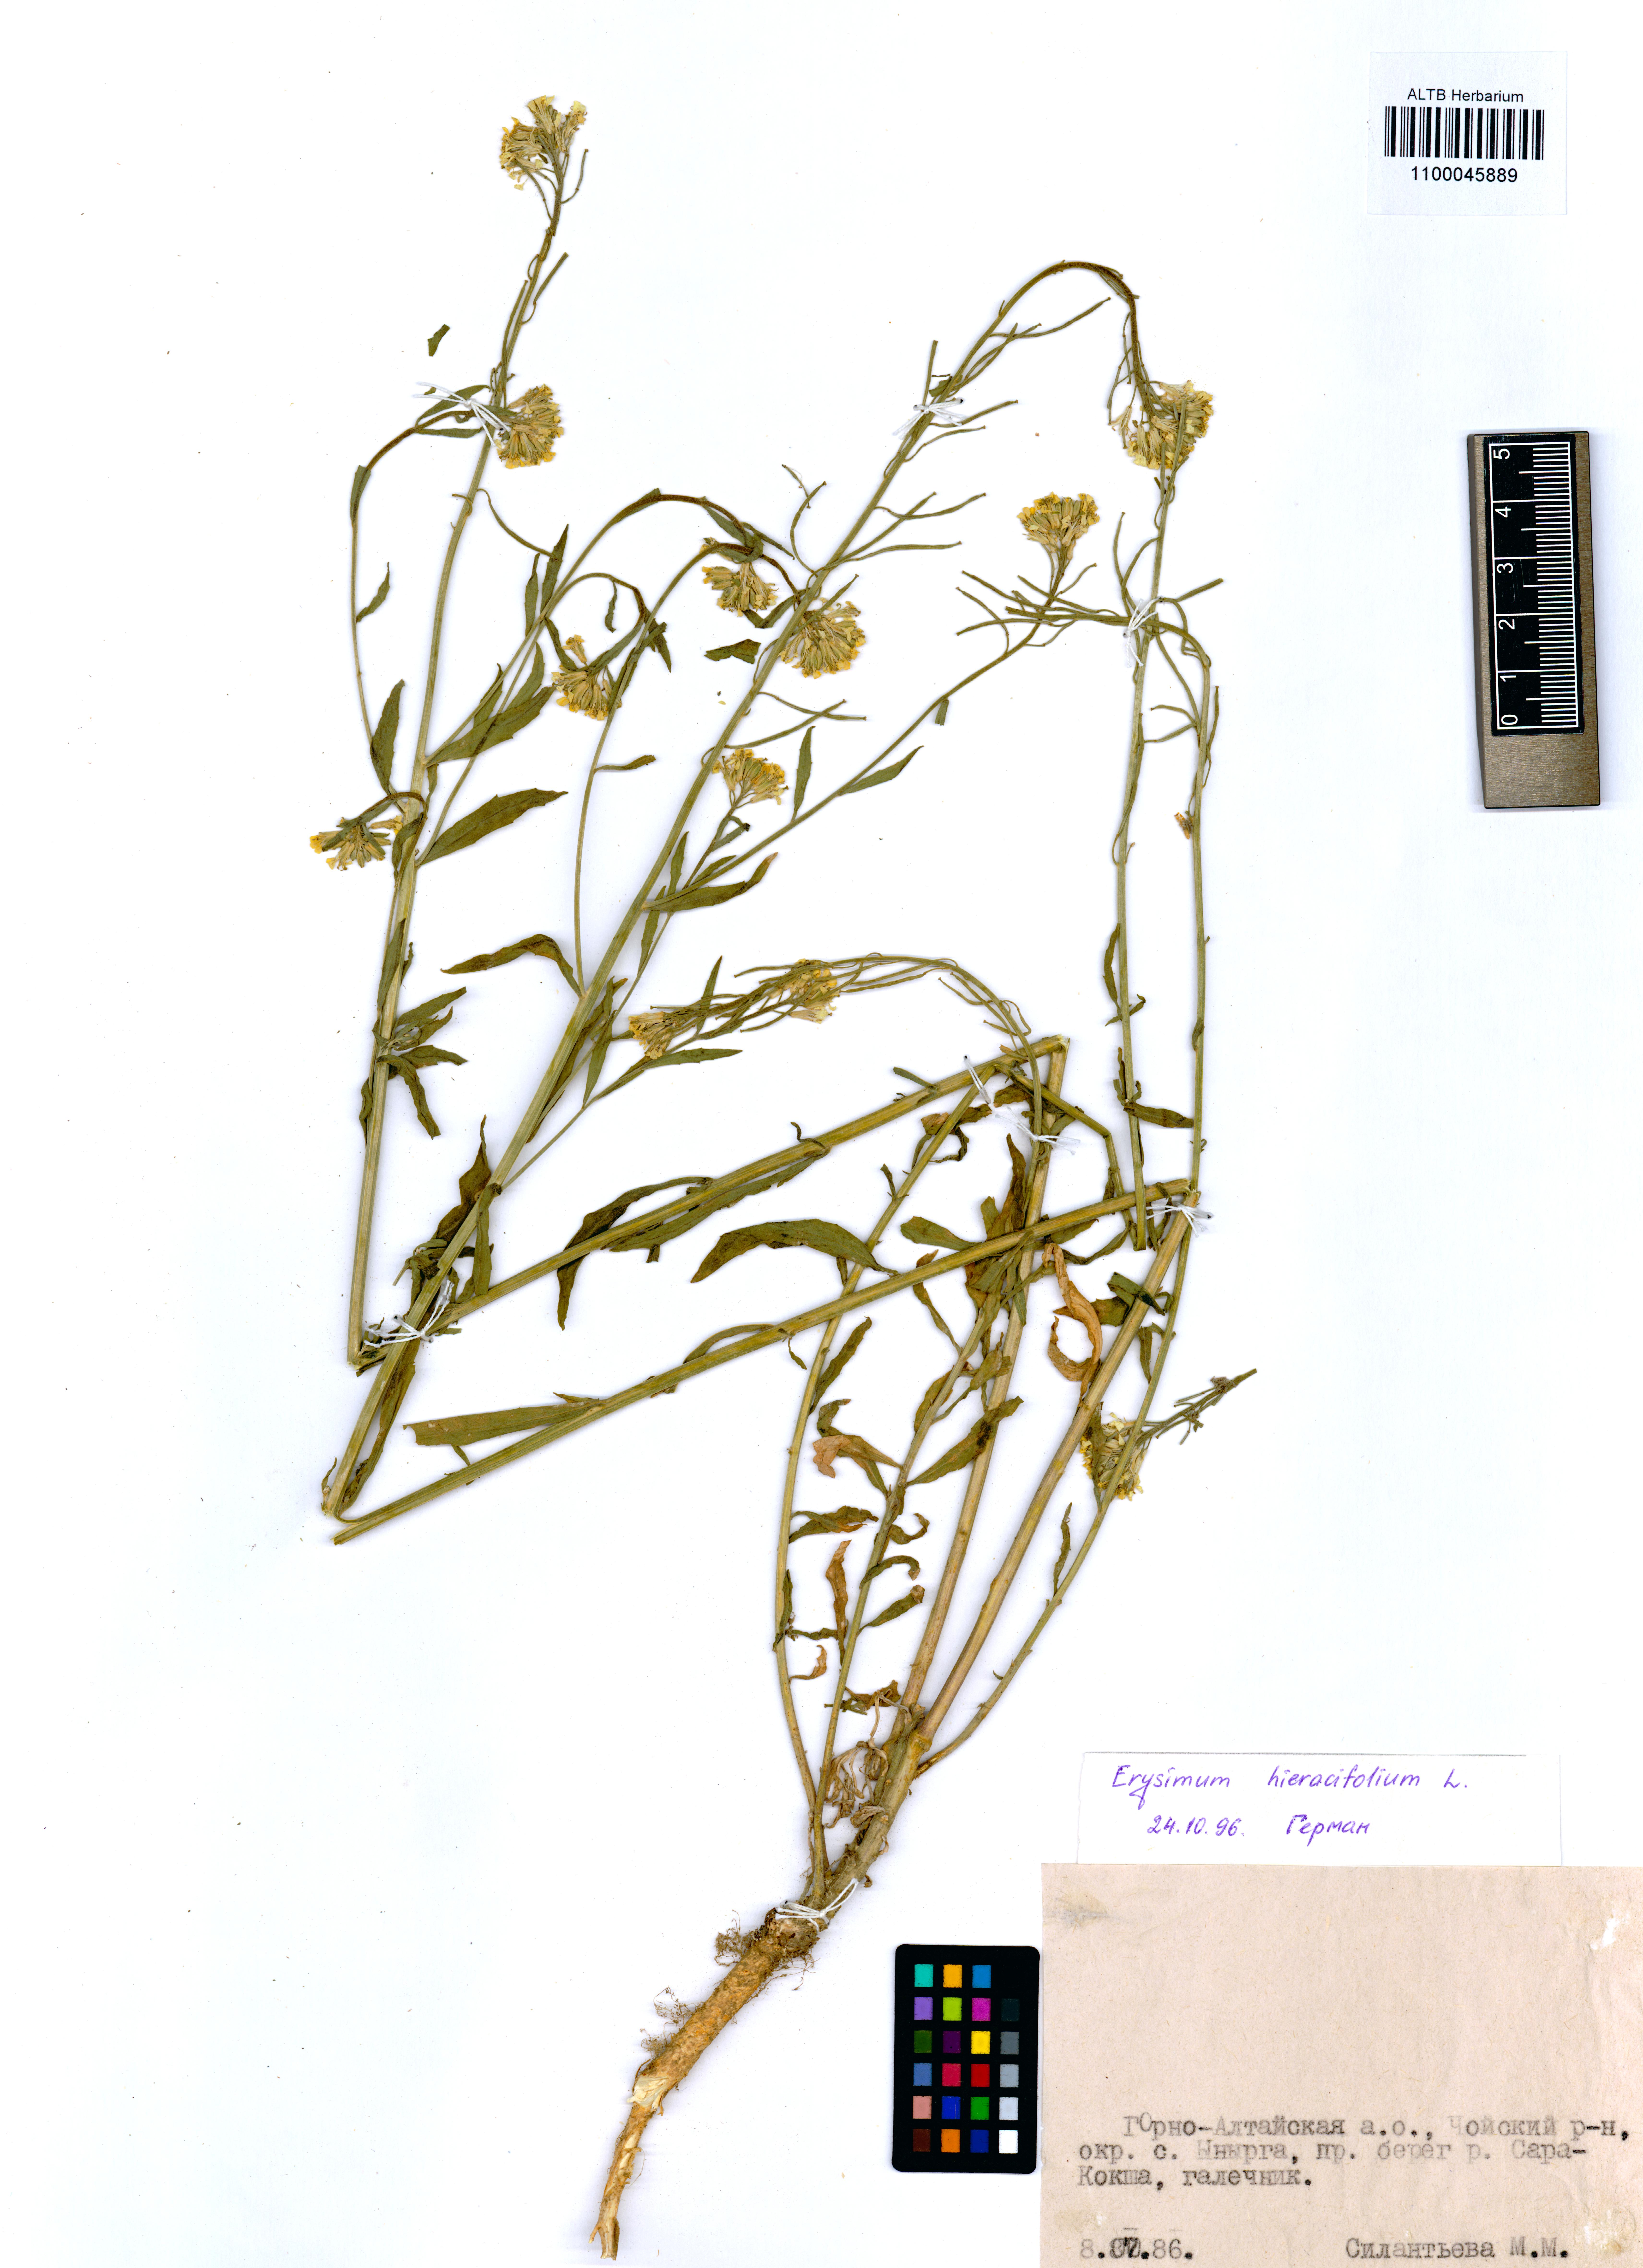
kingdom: Plantae
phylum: Tracheophyta
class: Magnoliopsida
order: Brassicales
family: Brassicaceae
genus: Erysimum
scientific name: Erysimum hieraciifolium
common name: European wallflower
